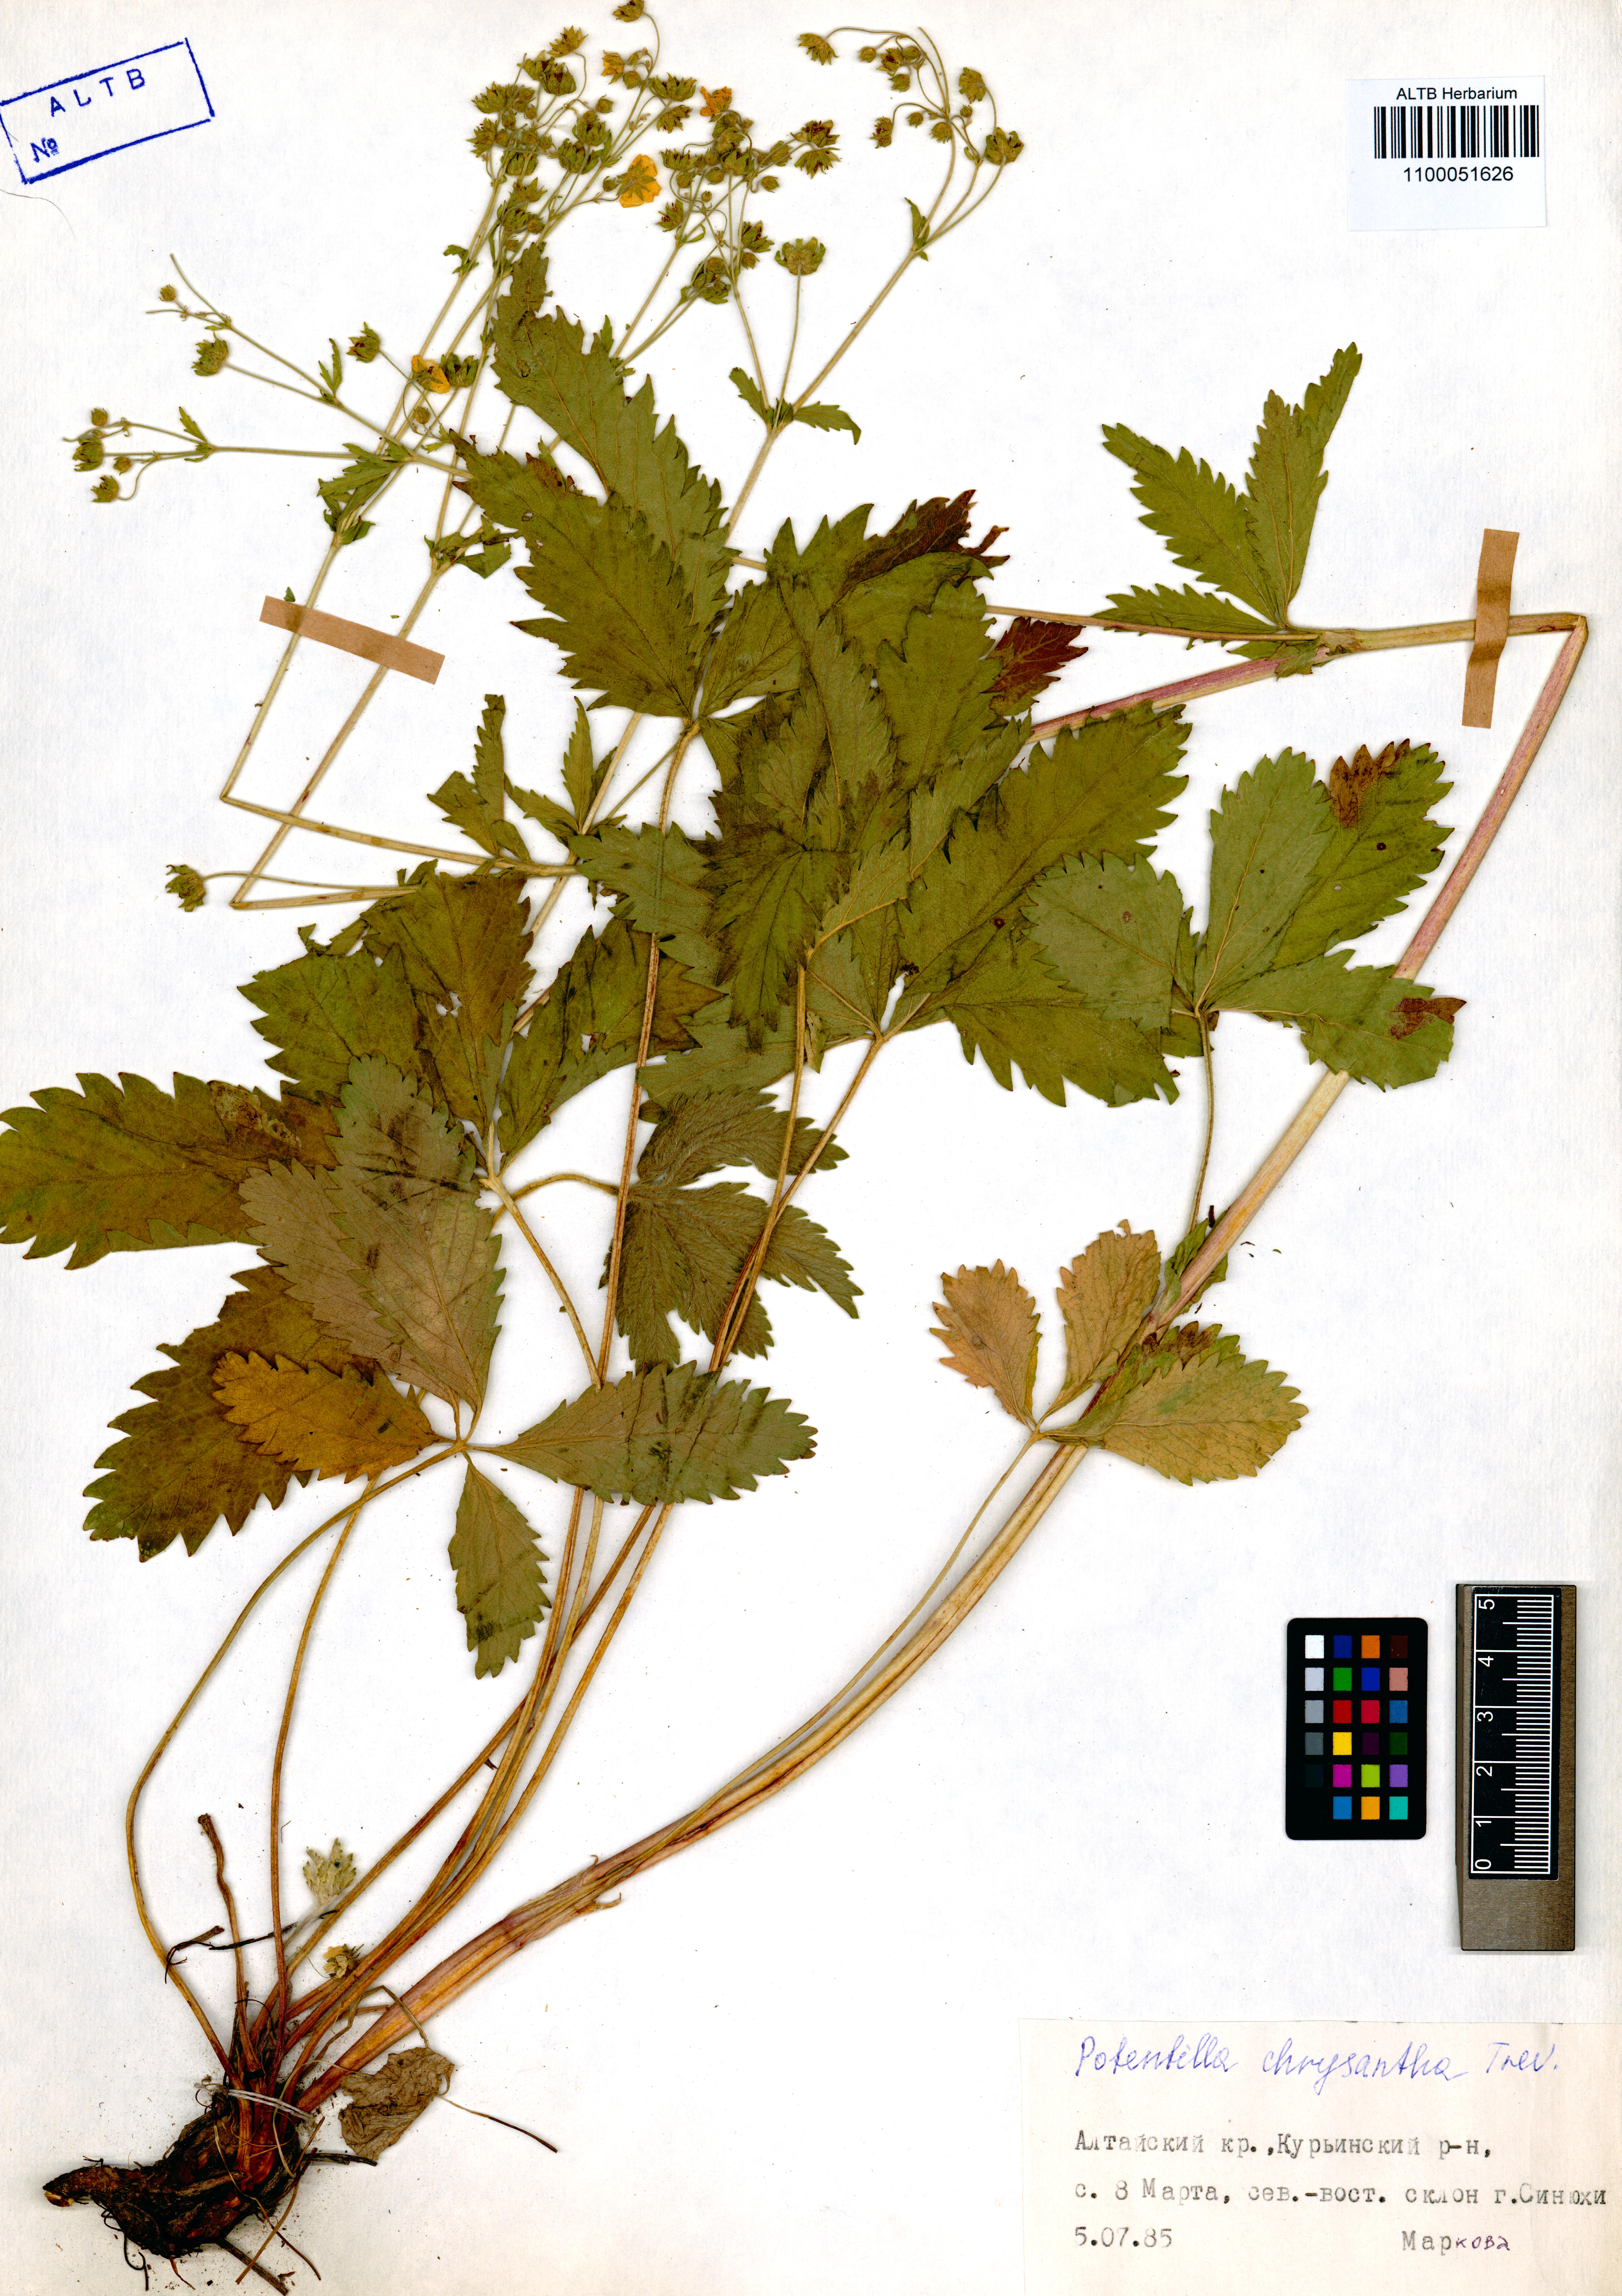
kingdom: Plantae
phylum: Tracheophyta
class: Magnoliopsida
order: Rosales
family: Rosaceae
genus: Potentilla
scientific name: Potentilla chrysantha
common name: Thuringian cinquefoil
